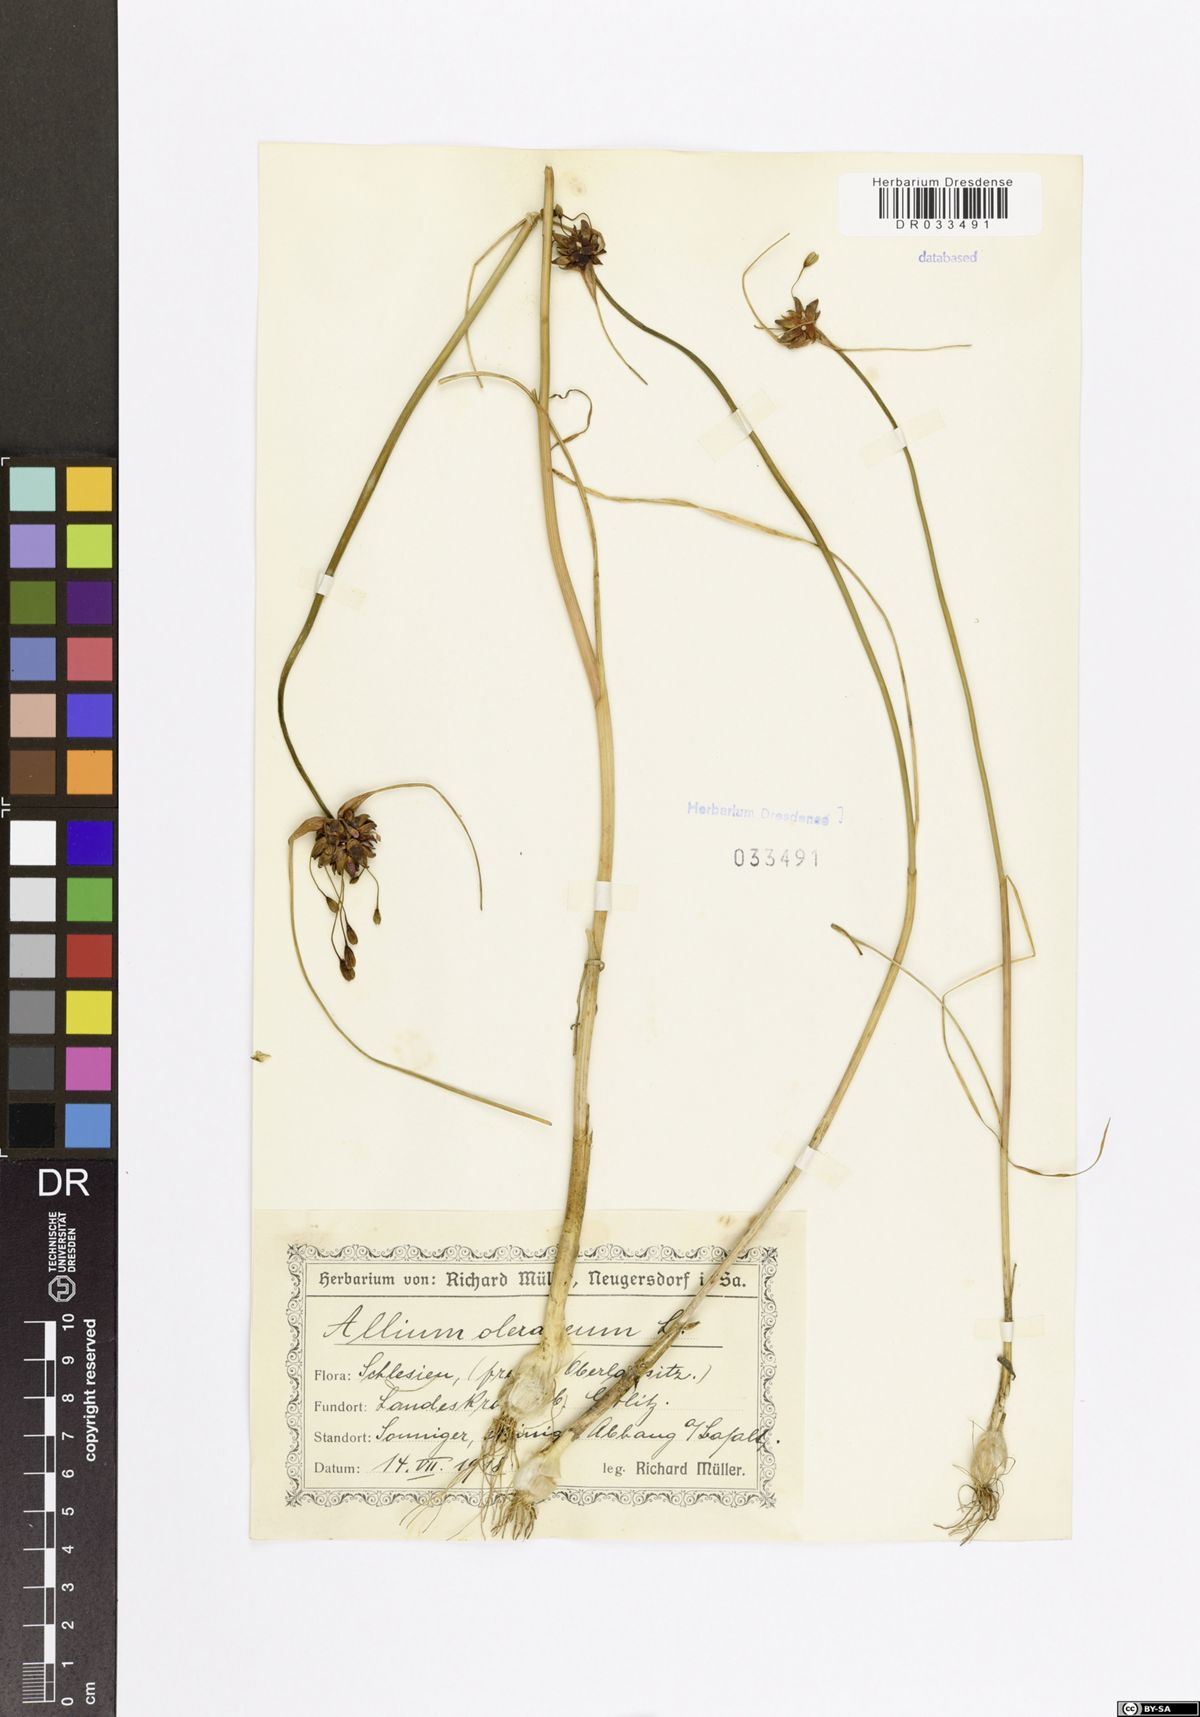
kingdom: Plantae
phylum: Tracheophyta
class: Liliopsida
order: Asparagales
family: Amaryllidaceae
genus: Allium
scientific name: Allium oleraceum
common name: Field garlic
